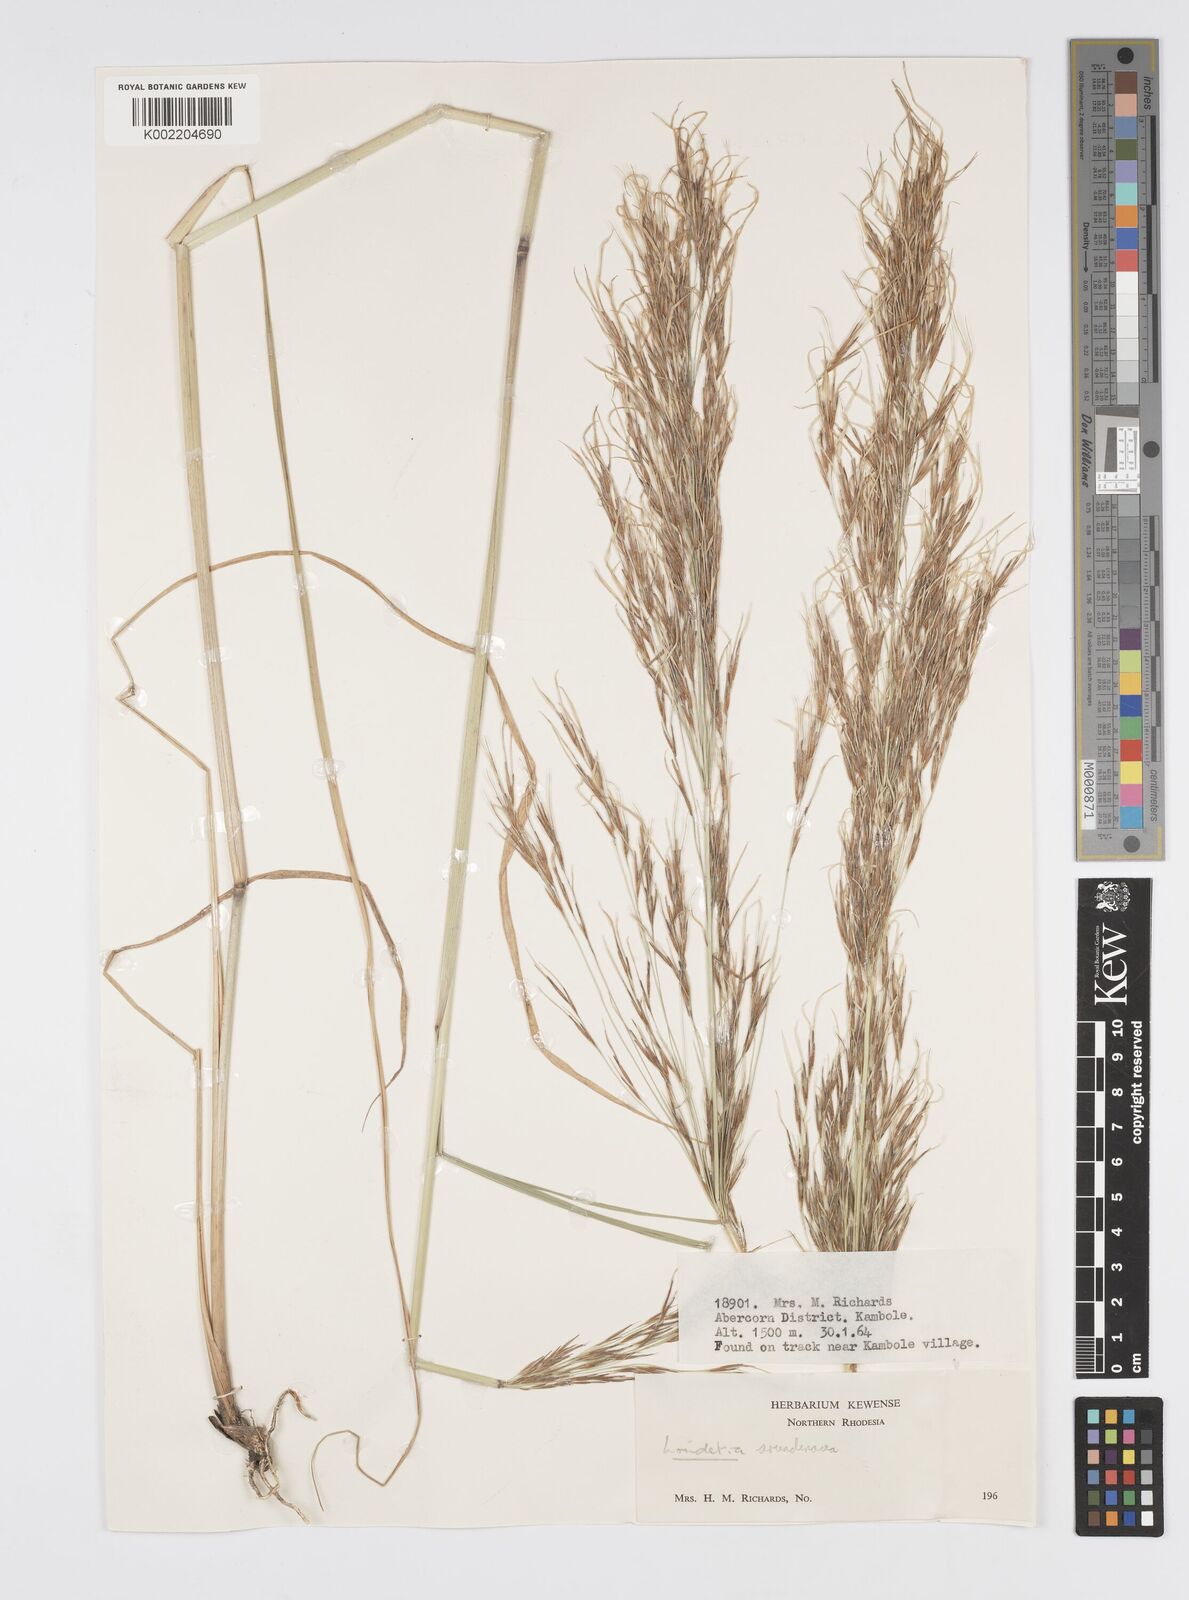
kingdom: Plantae
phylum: Tracheophyta
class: Liliopsida
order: Poales
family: Poaceae
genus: Loudetia
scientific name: Loudetia arundinacea
